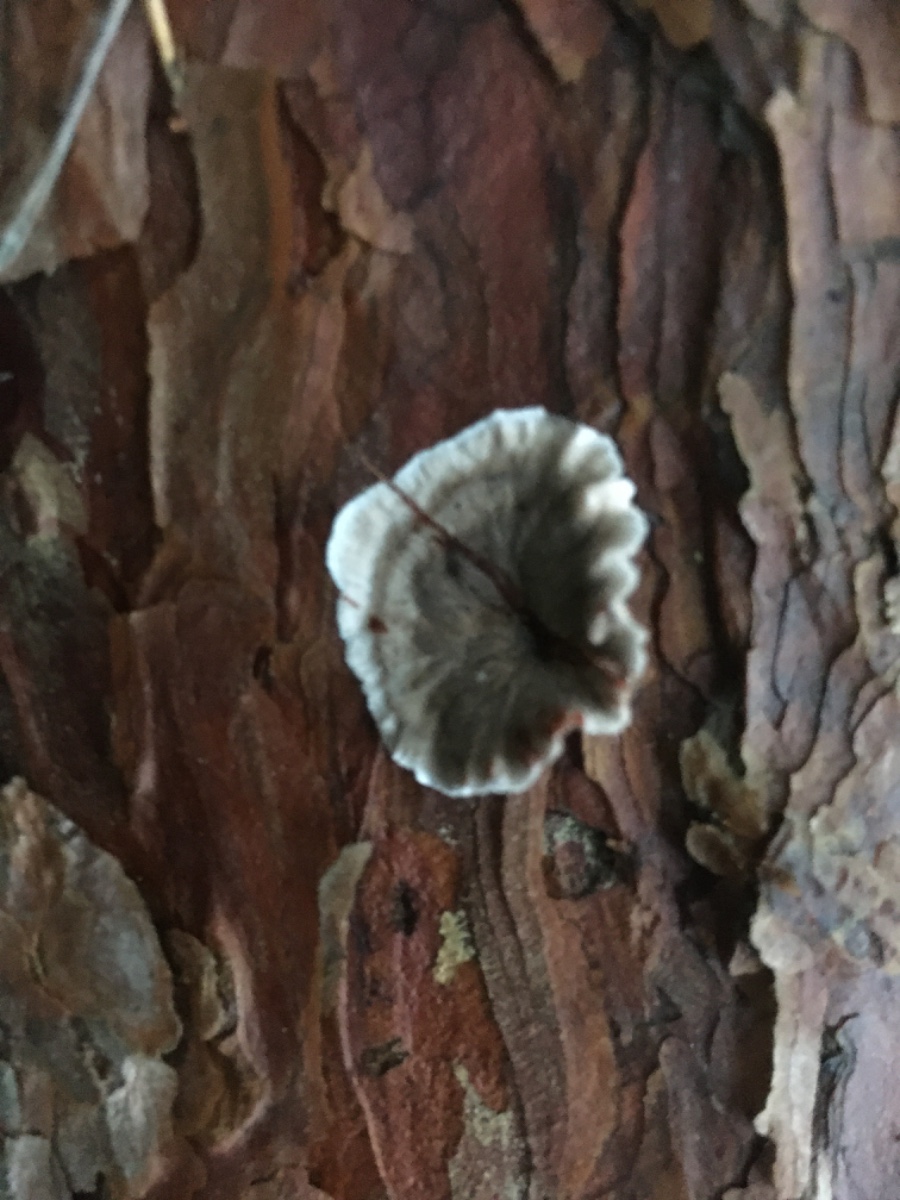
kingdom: Fungi
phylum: Basidiomycota
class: Agaricomycetes
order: Russulales
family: Stereaceae
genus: Stereum
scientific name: Stereum sanguinolentum
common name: blødende lædersvamp
